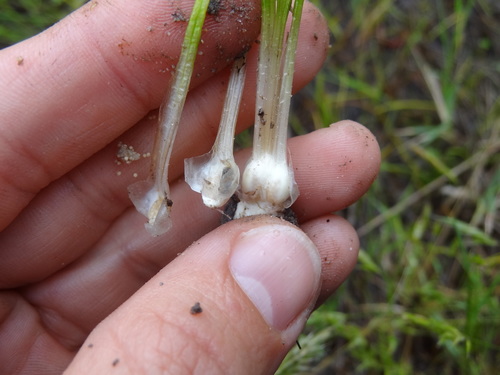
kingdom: Plantae
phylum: Tracheophyta
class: Lycopodiopsida
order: Isoetales
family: Isoetaceae
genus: Isoetes
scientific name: Isoetes longissima
